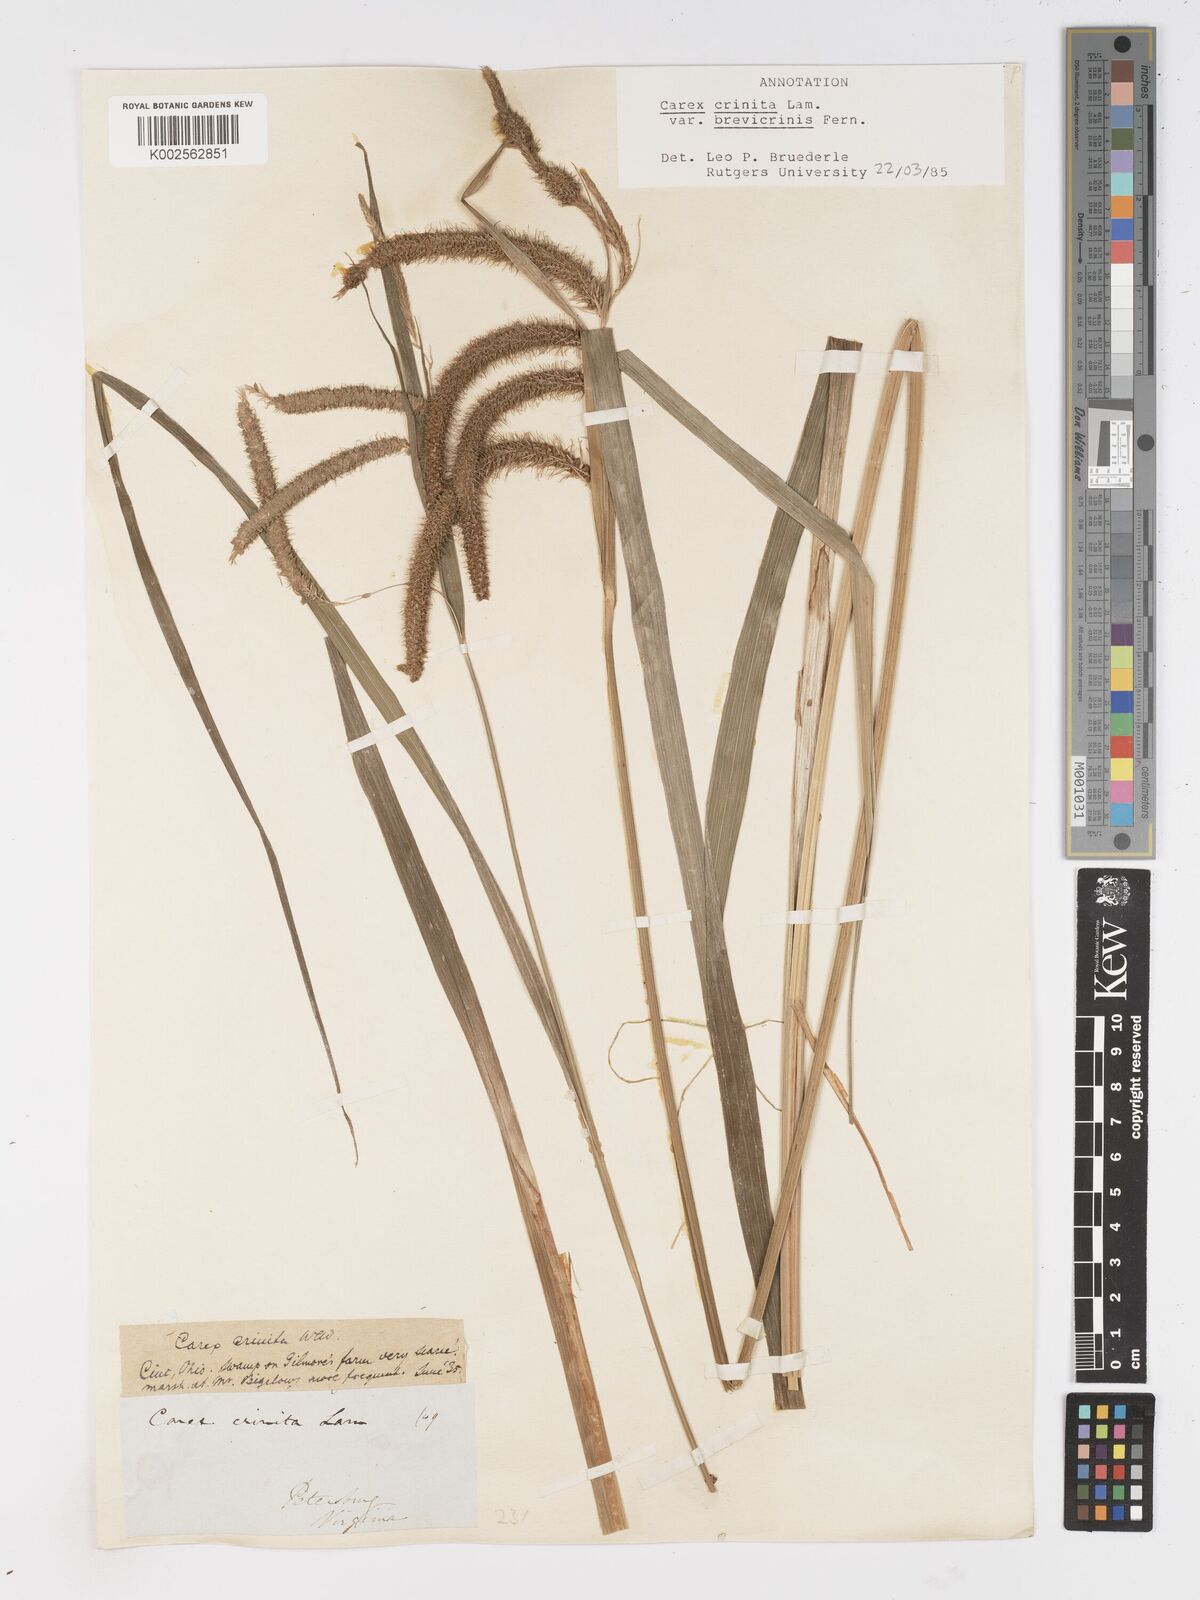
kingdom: Plantae
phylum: Tracheophyta
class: Liliopsida
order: Poales
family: Cyperaceae
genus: Carex
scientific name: Carex crinita
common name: Fringed sedge
